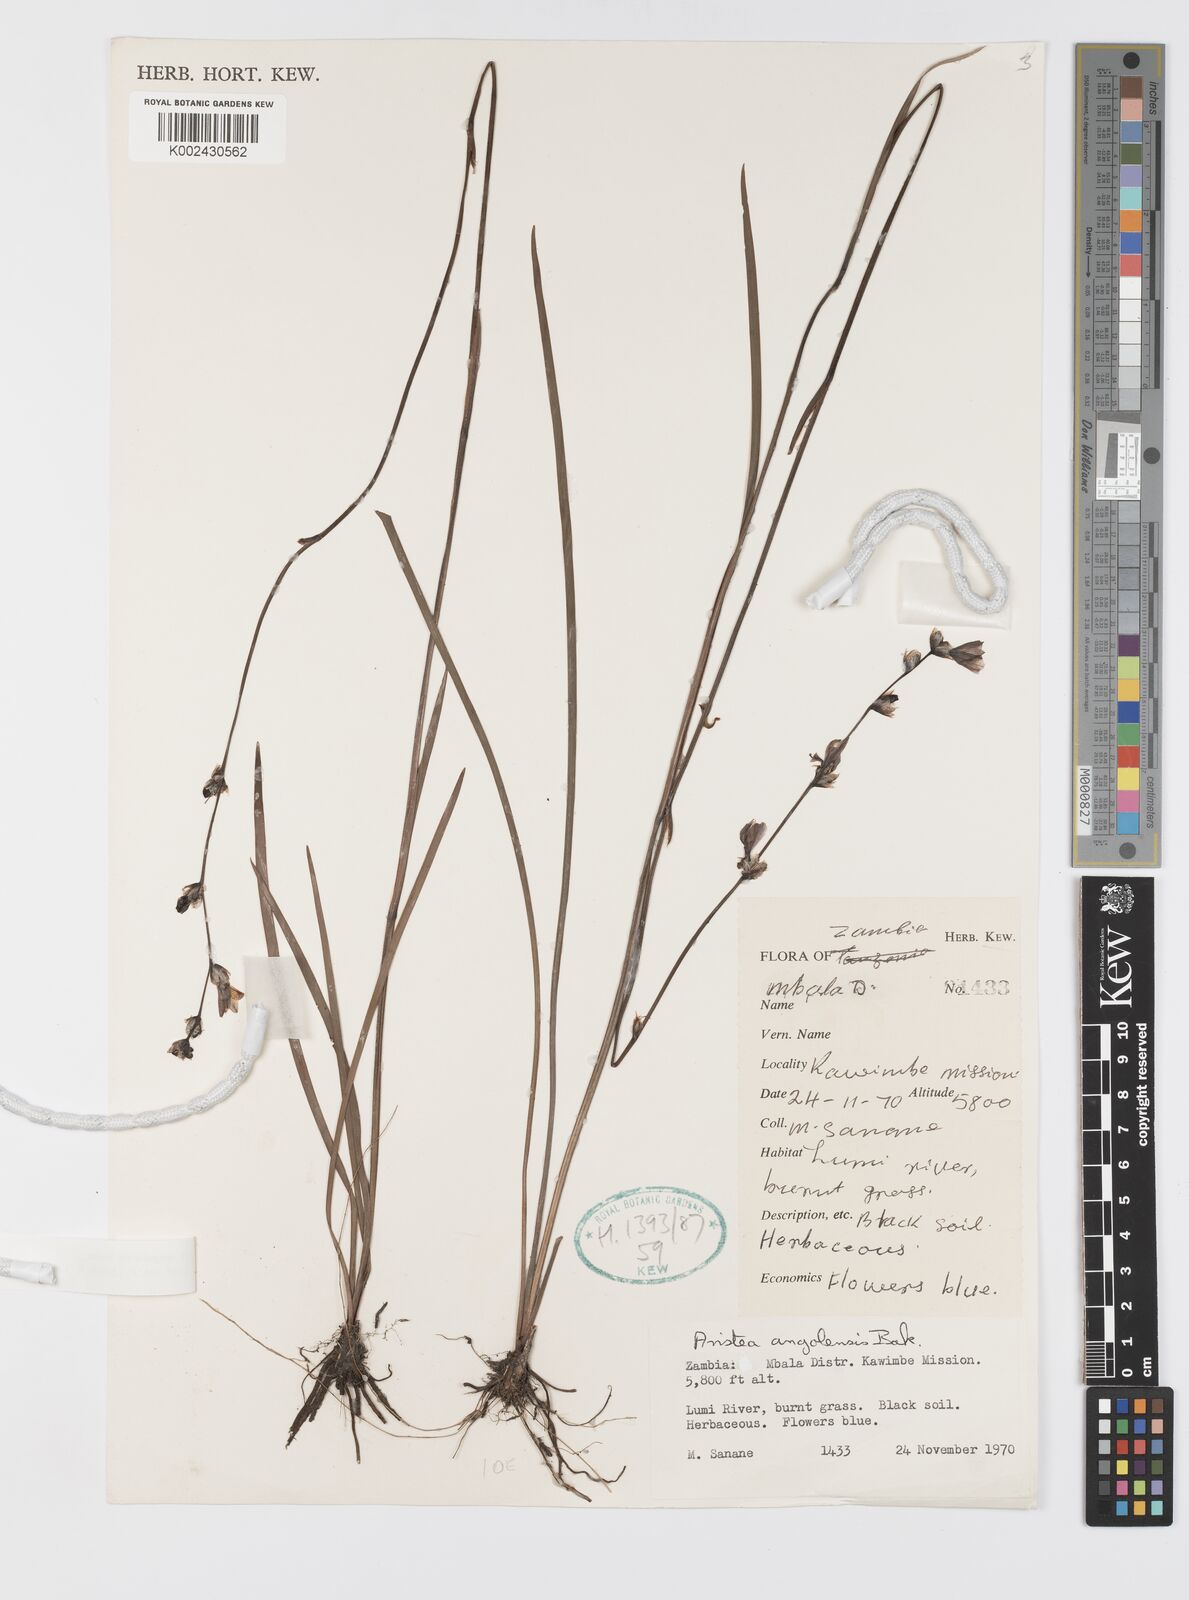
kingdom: Plantae
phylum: Tracheophyta
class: Liliopsida
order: Asparagales
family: Iridaceae
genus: Aristea
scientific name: Aristea angolensis
